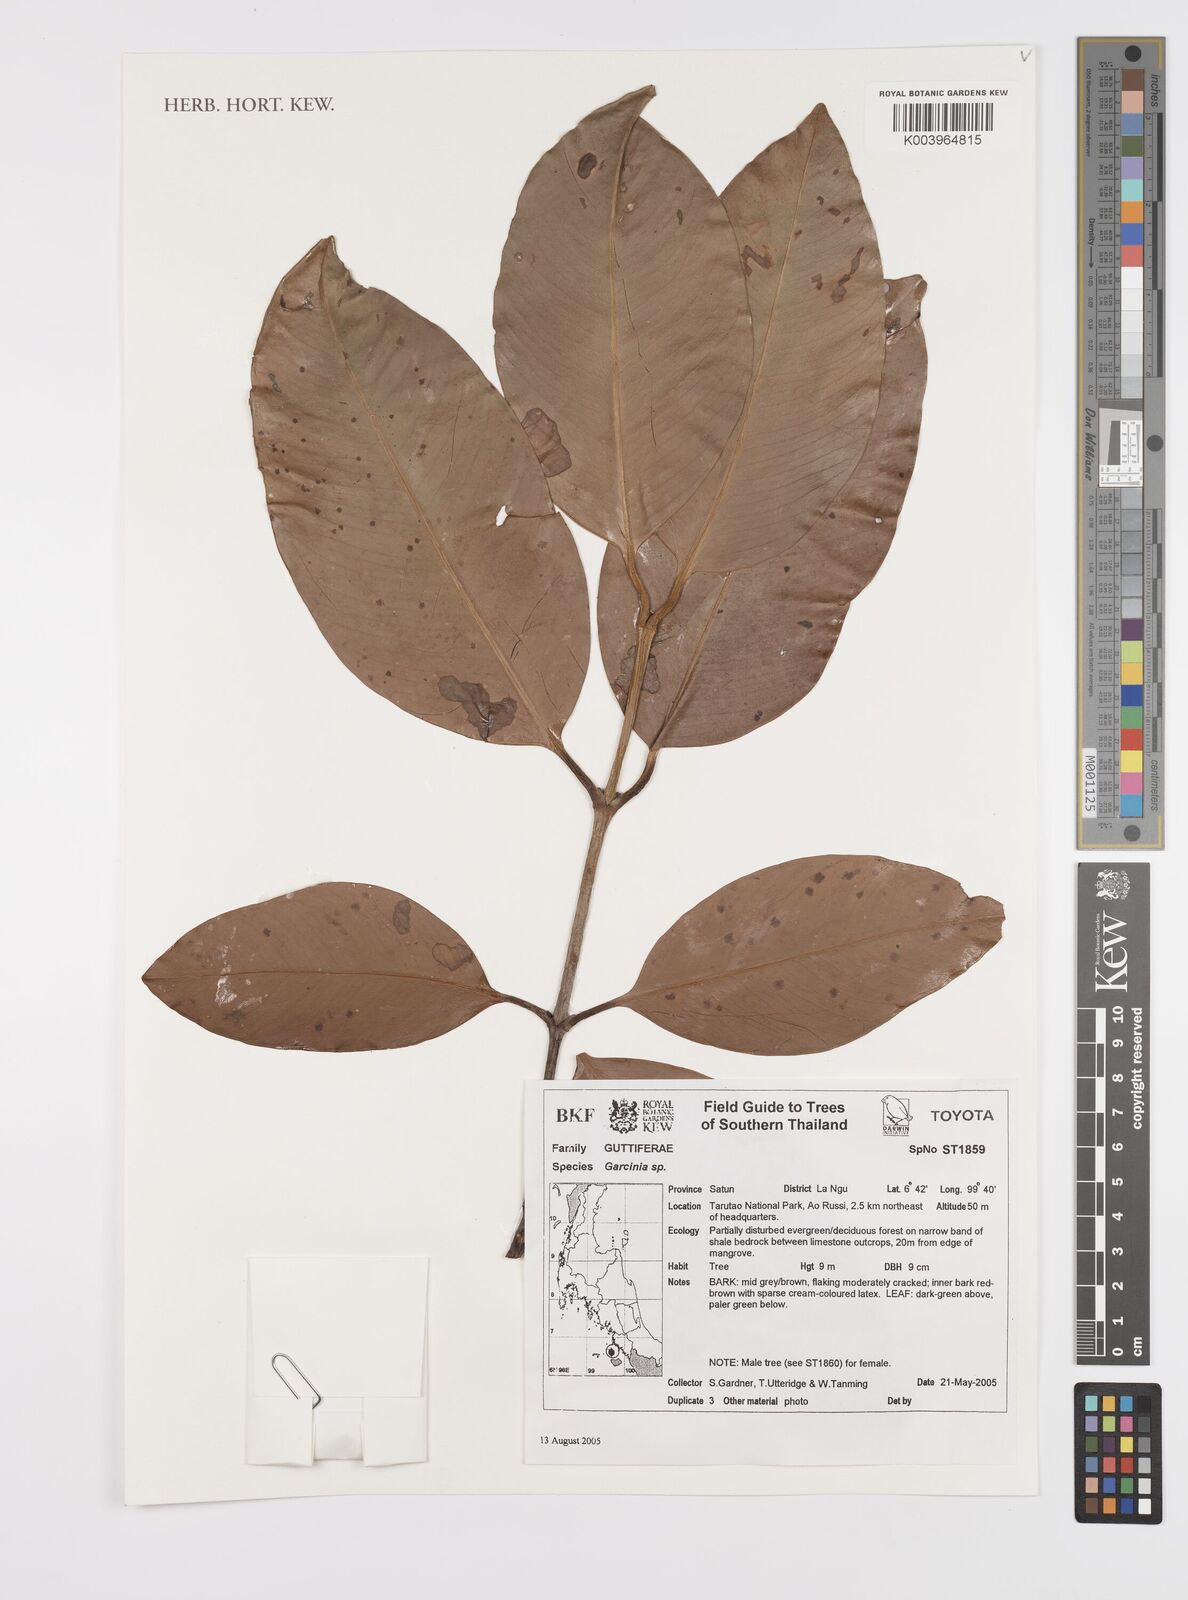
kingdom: Plantae
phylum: Tracheophyta
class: Magnoliopsida
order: Malpighiales
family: Clusiaceae
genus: Garcinia
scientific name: Garcinia
